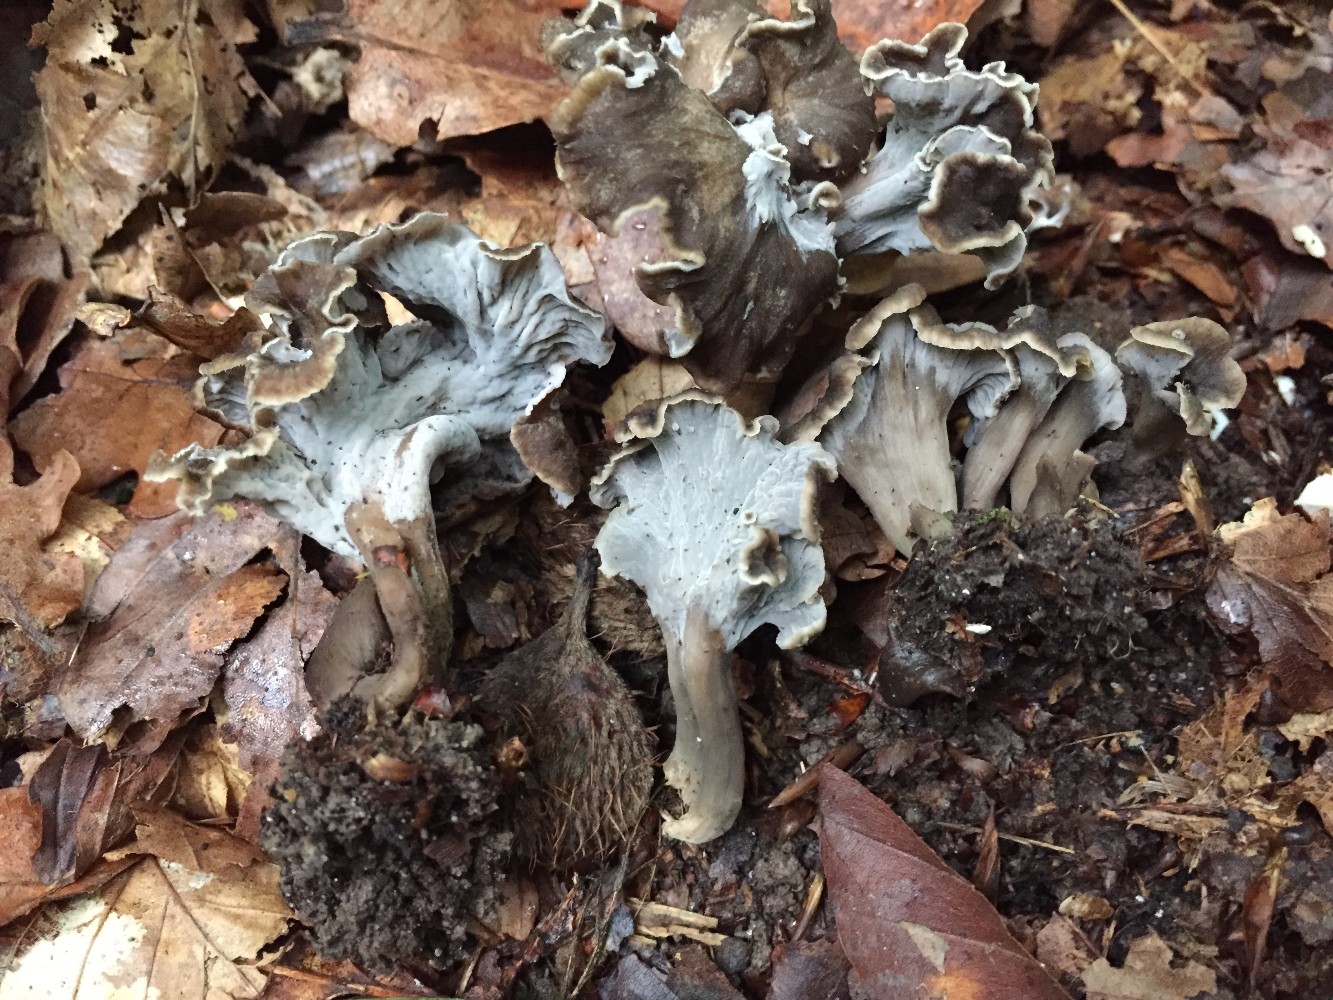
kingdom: Fungi
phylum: Basidiomycota
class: Agaricomycetes
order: Cantharellales
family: Hydnaceae
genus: Craterellus
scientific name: Craterellus undulatus
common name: liden kantarel
